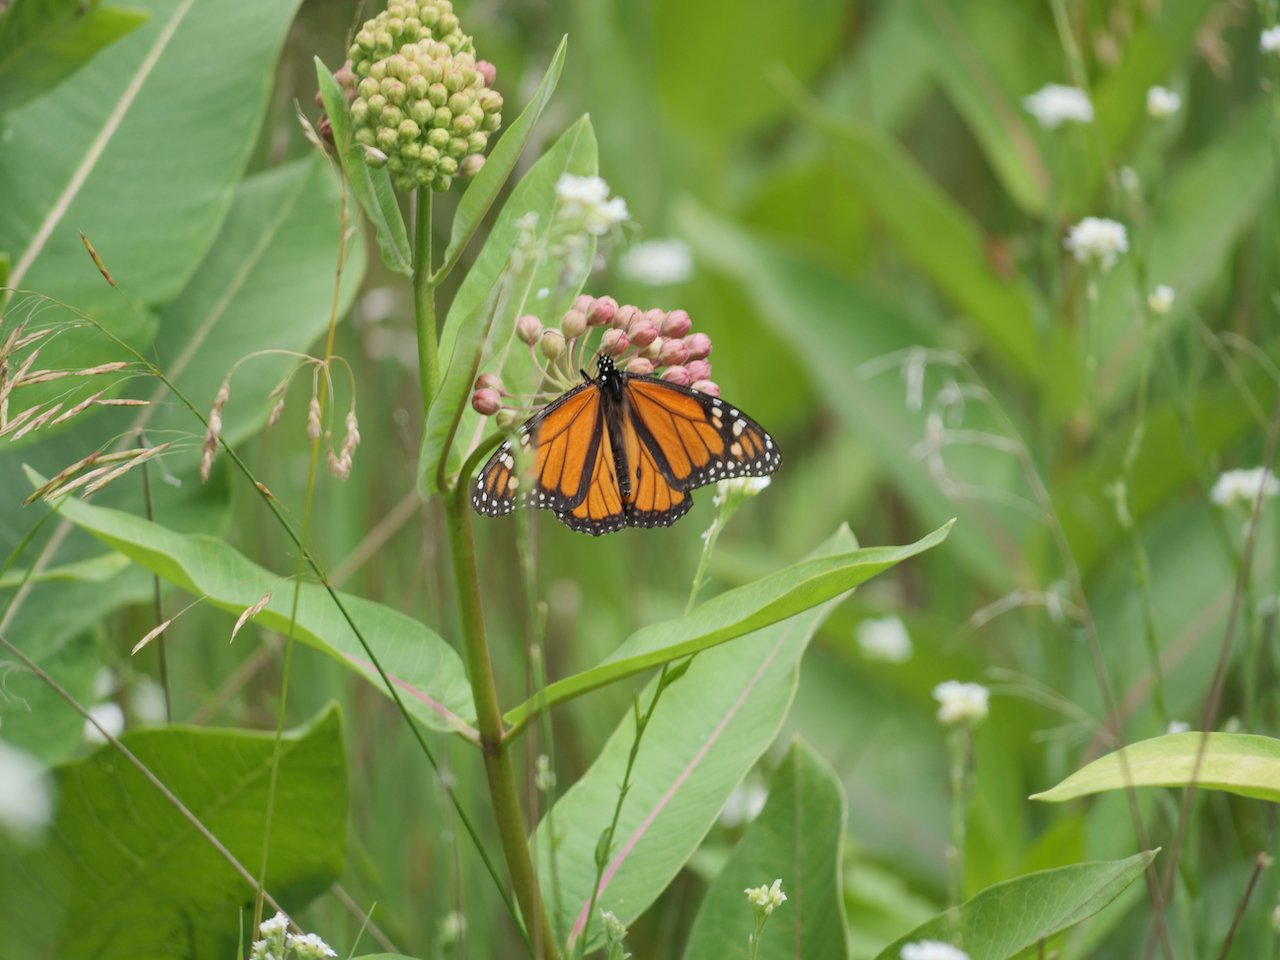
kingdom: Animalia
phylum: Arthropoda
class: Insecta
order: Lepidoptera
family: Nymphalidae
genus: Danaus
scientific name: Danaus plexippus
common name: Monarch
